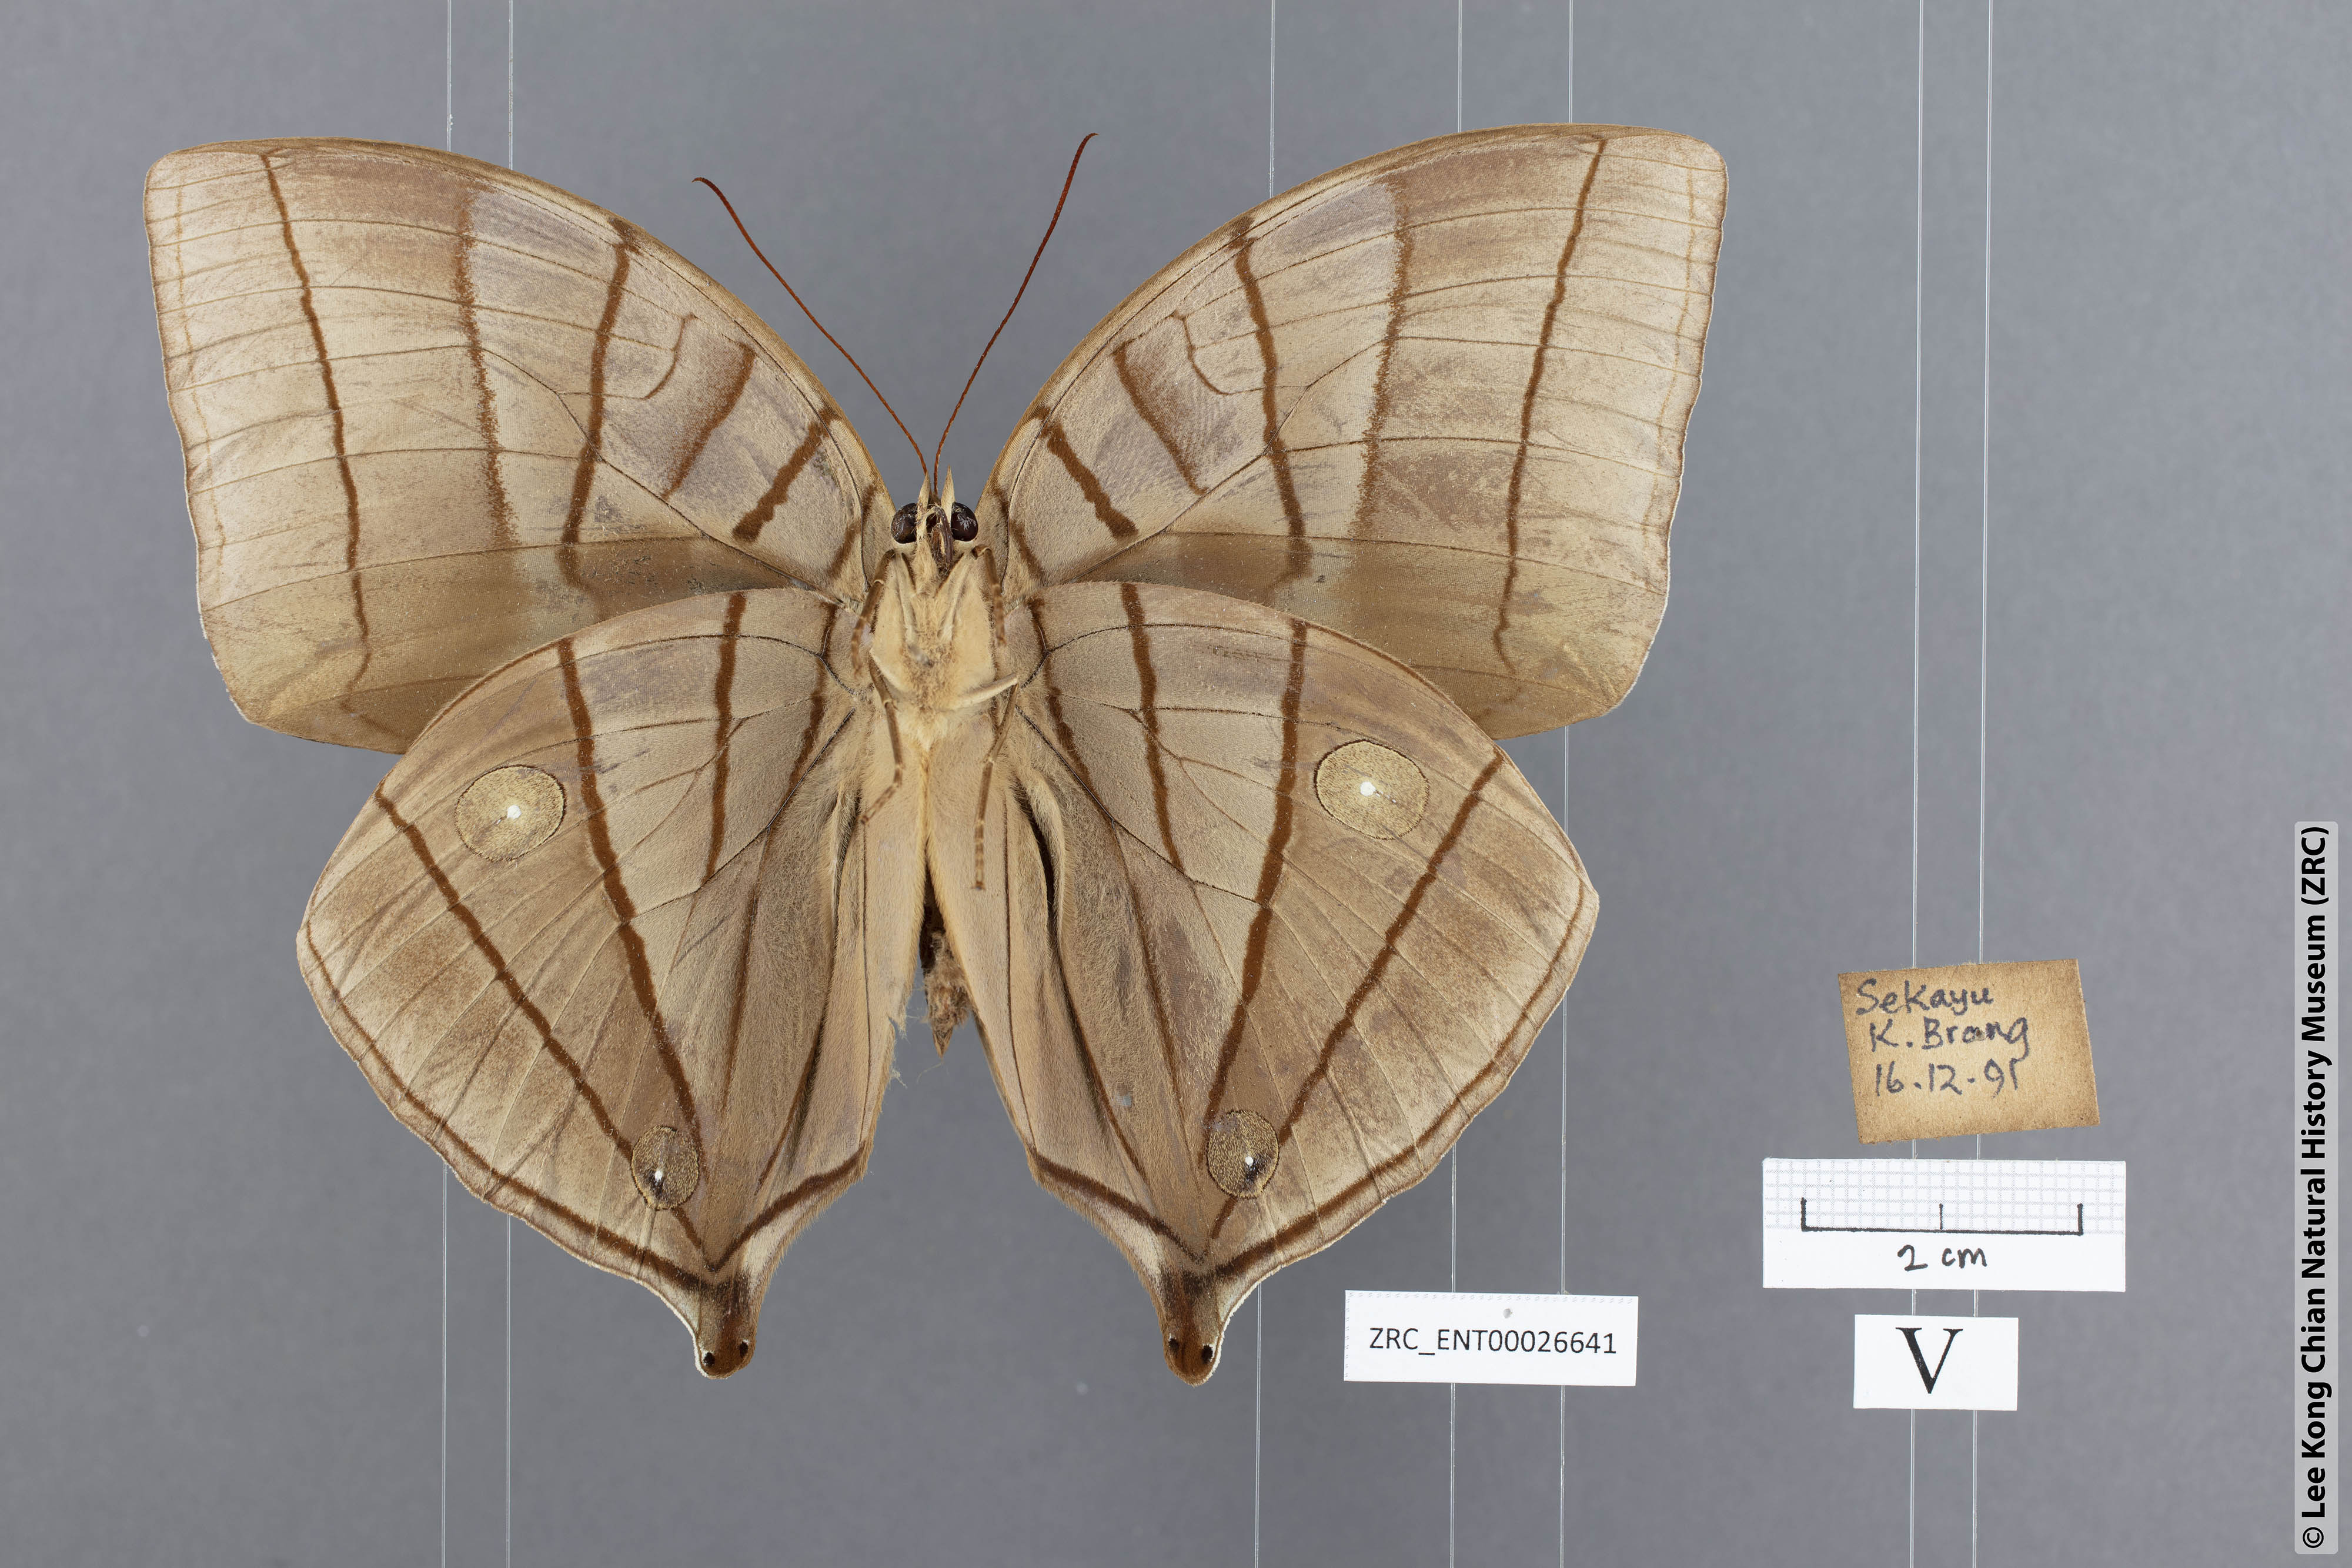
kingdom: Animalia
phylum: Arthropoda
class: Insecta
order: Lepidoptera
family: Nymphalidae
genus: Amathuxidia
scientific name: Amathuxidia amythaon
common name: Koh-i-noor
